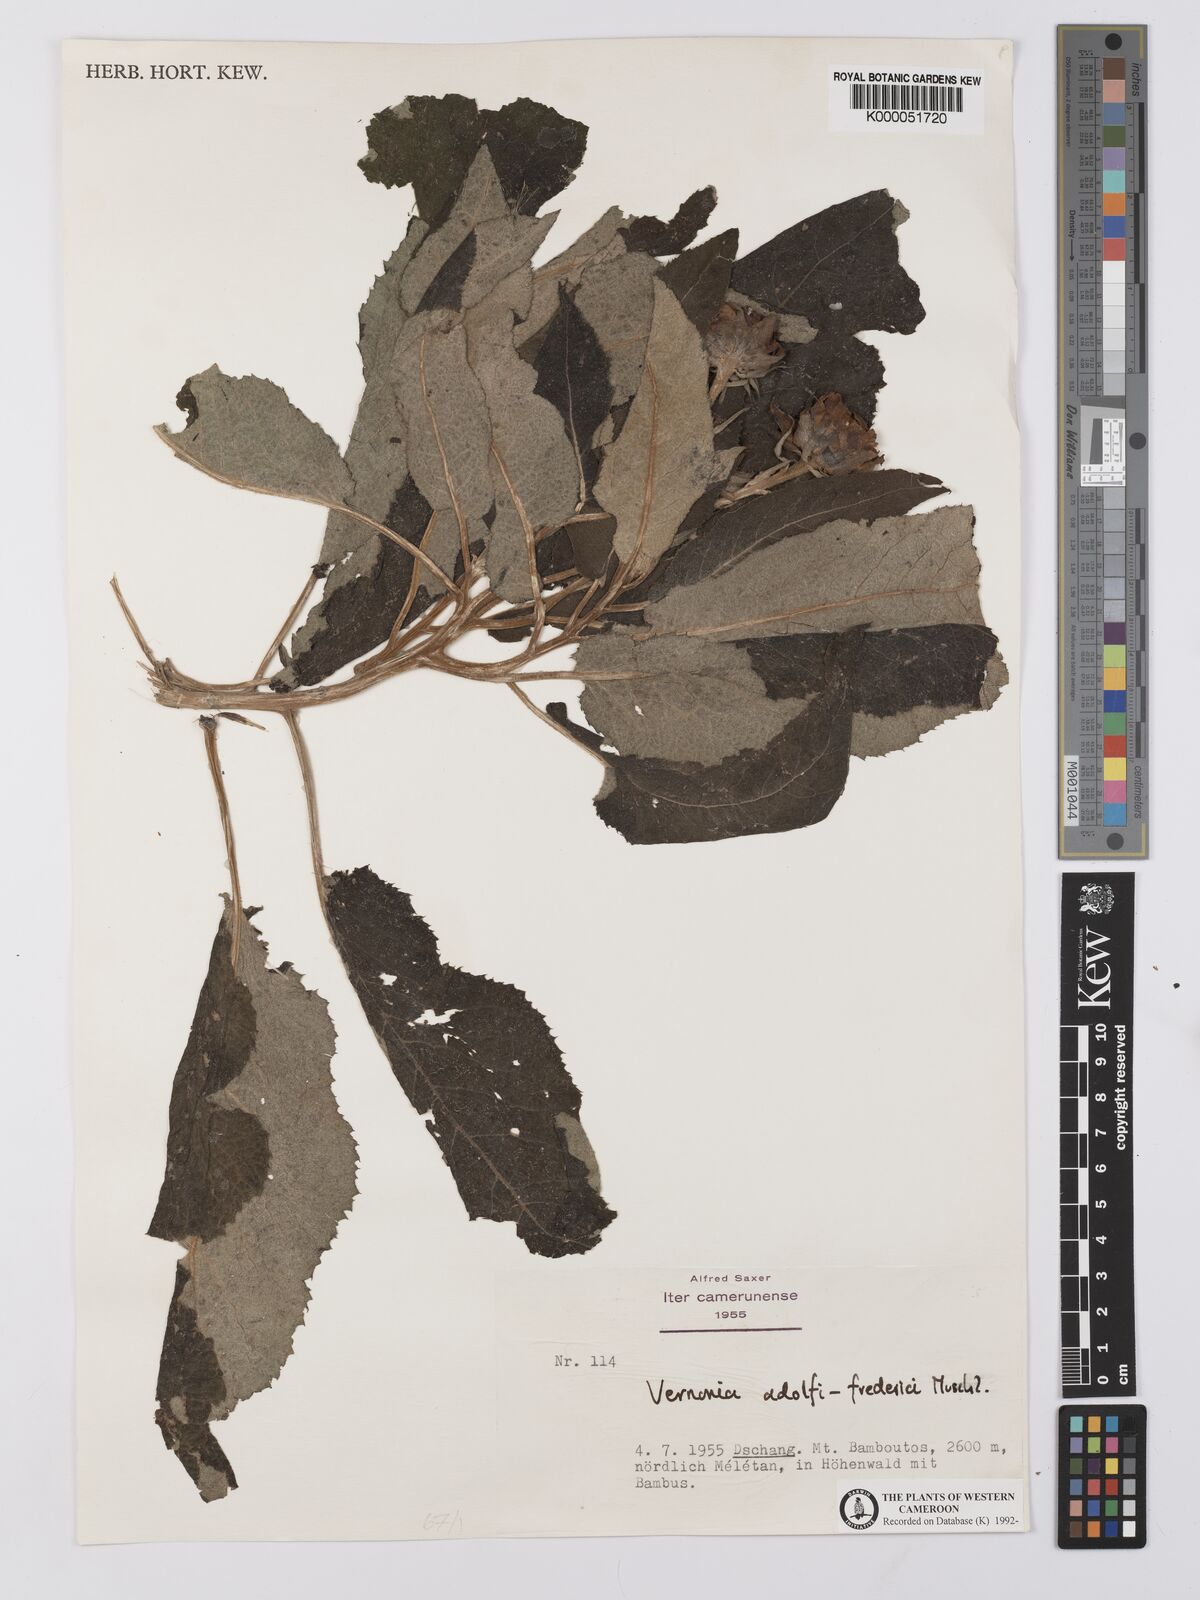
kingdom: Plantae
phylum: Tracheophyta
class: Magnoliopsida
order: Asterales
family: Asteraceae
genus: Baccharoides
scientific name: Baccharoides tenoreana
